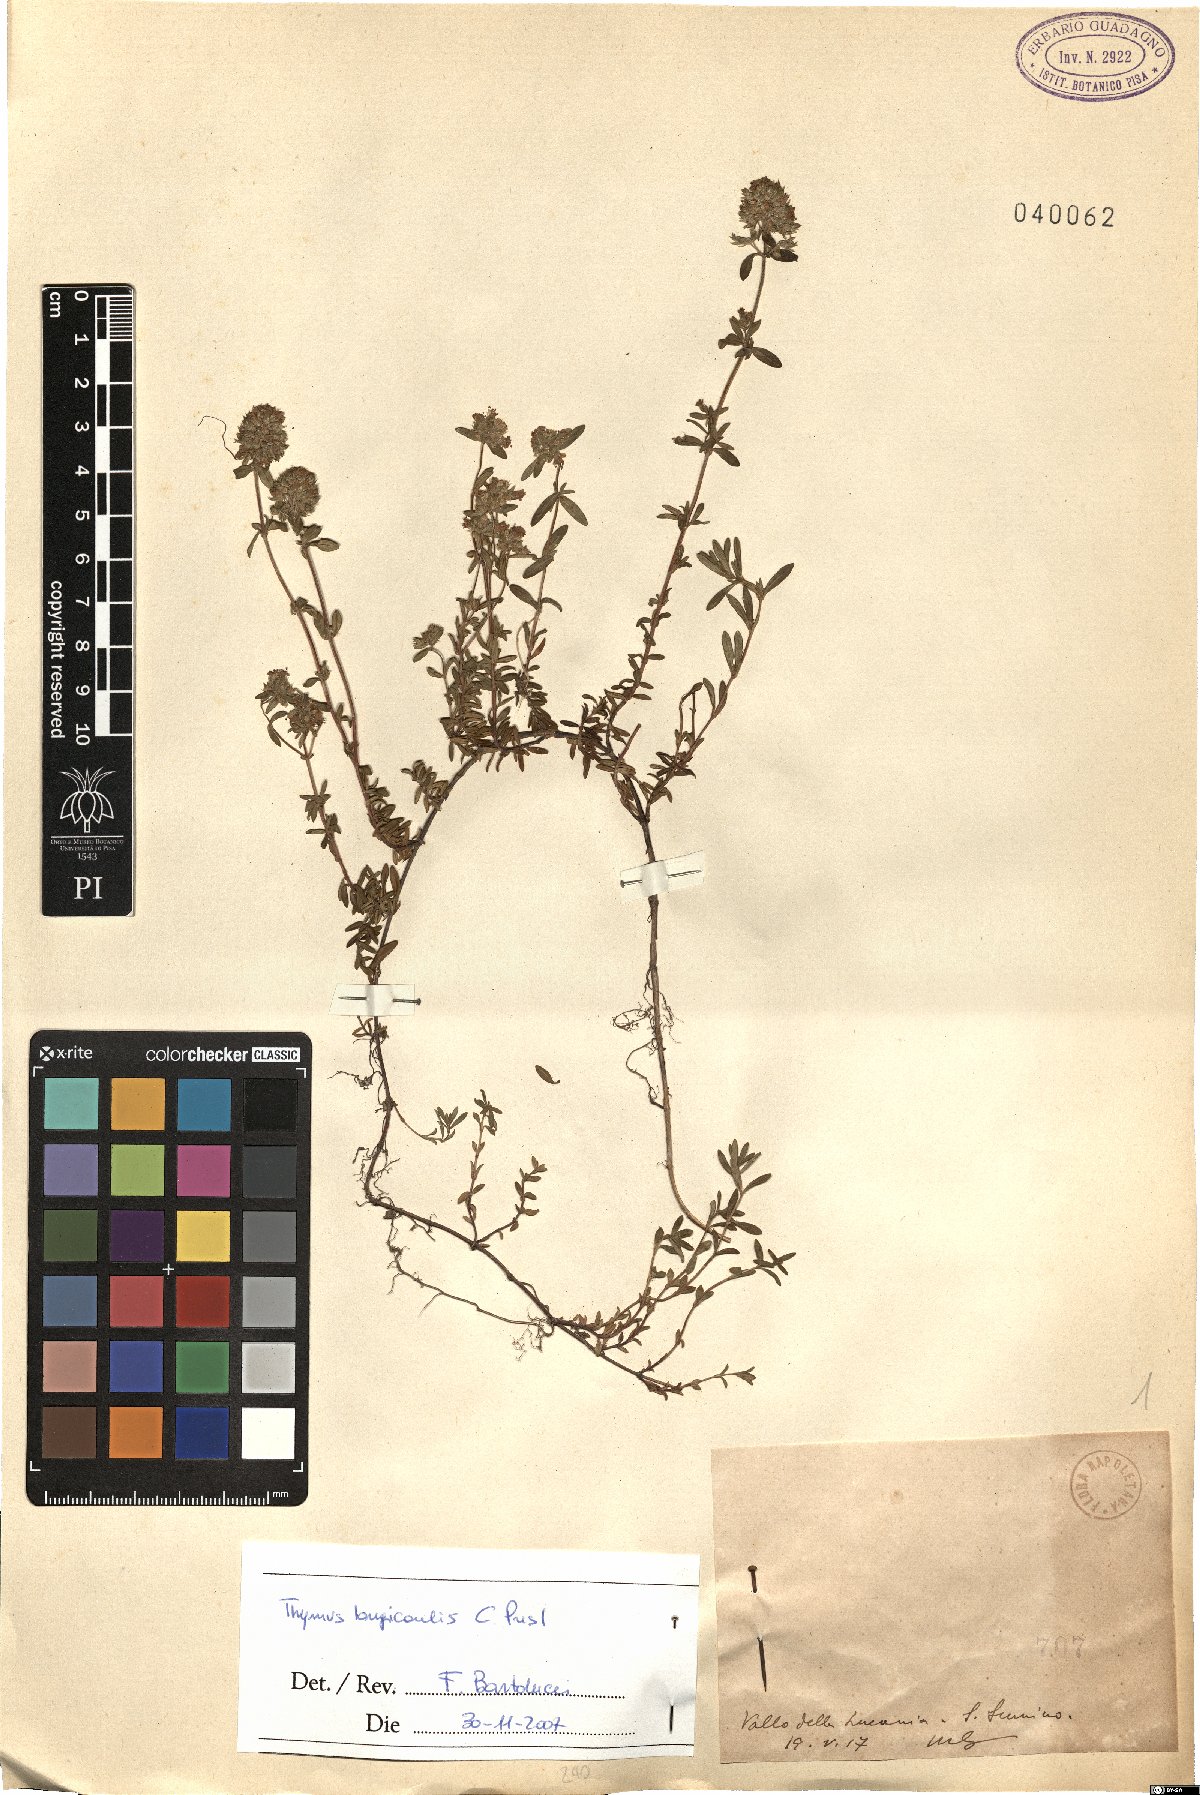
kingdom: Plantae
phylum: Tracheophyta
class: Magnoliopsida
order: Lamiales
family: Lamiaceae
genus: Thymus
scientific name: Thymus longicaulis
